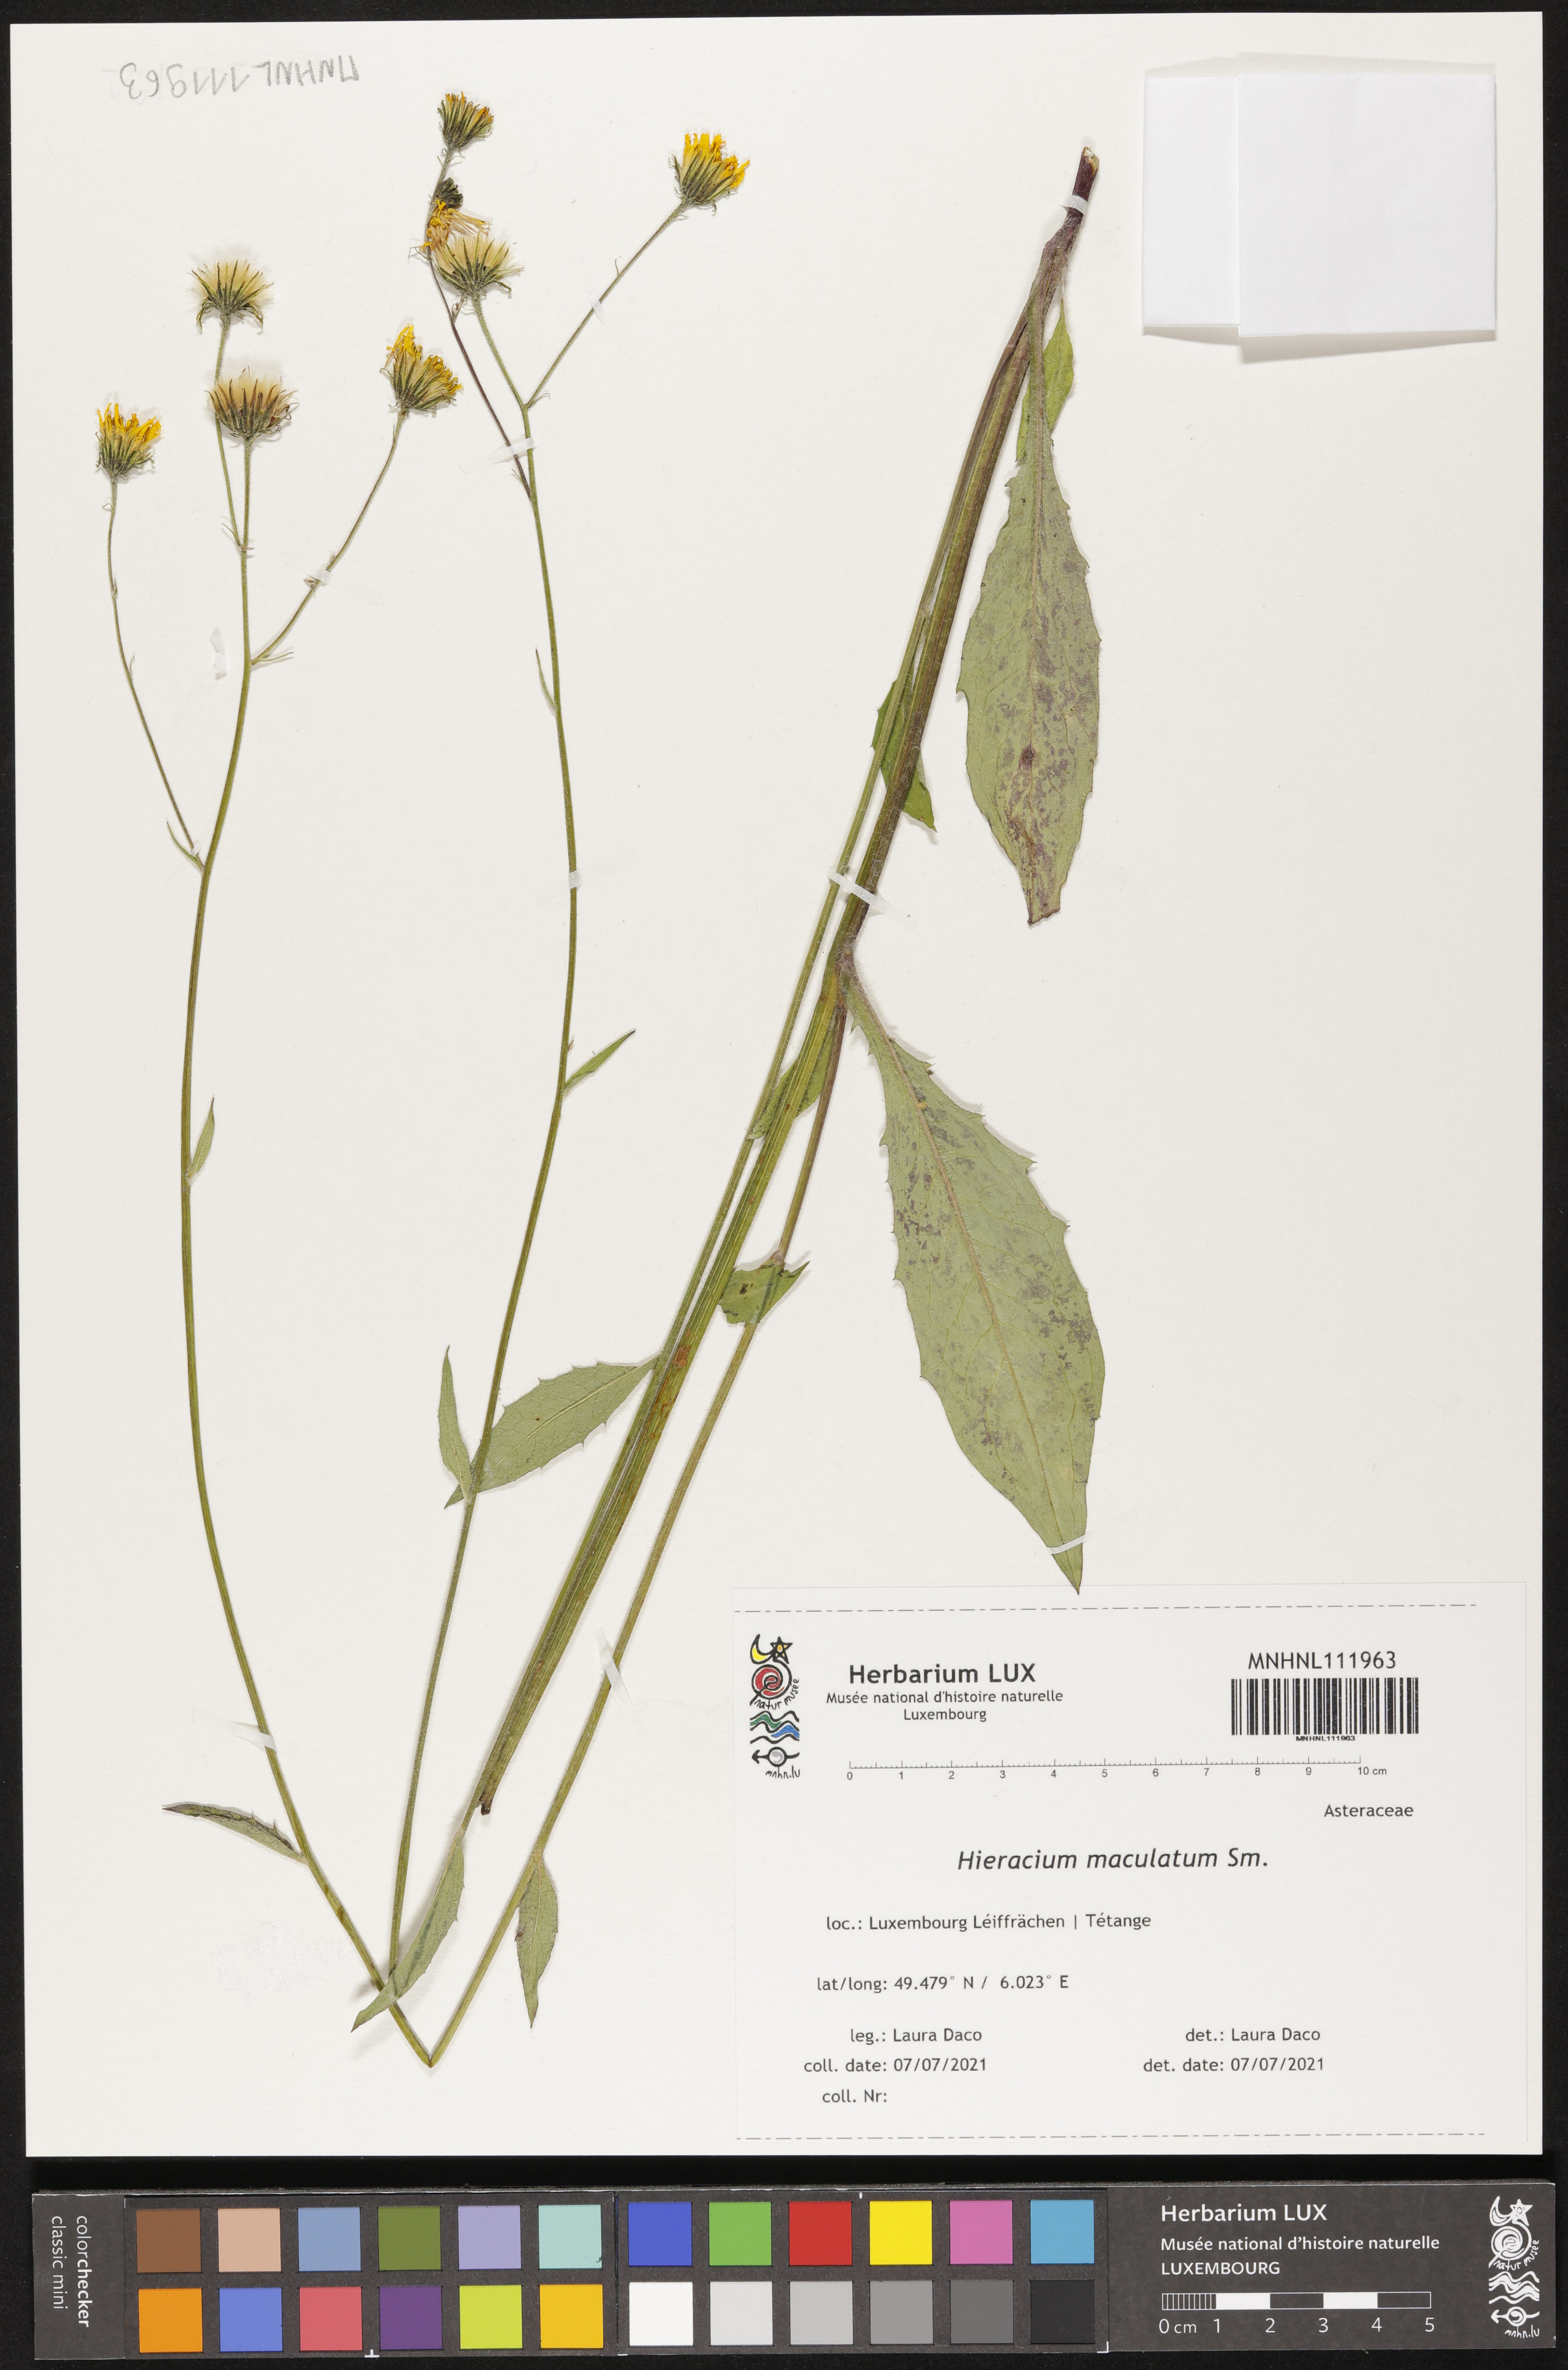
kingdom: Plantae
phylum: Tracheophyta
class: Magnoliopsida
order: Asterales
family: Asteraceae
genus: Hieracium
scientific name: Hieracium maculatum
